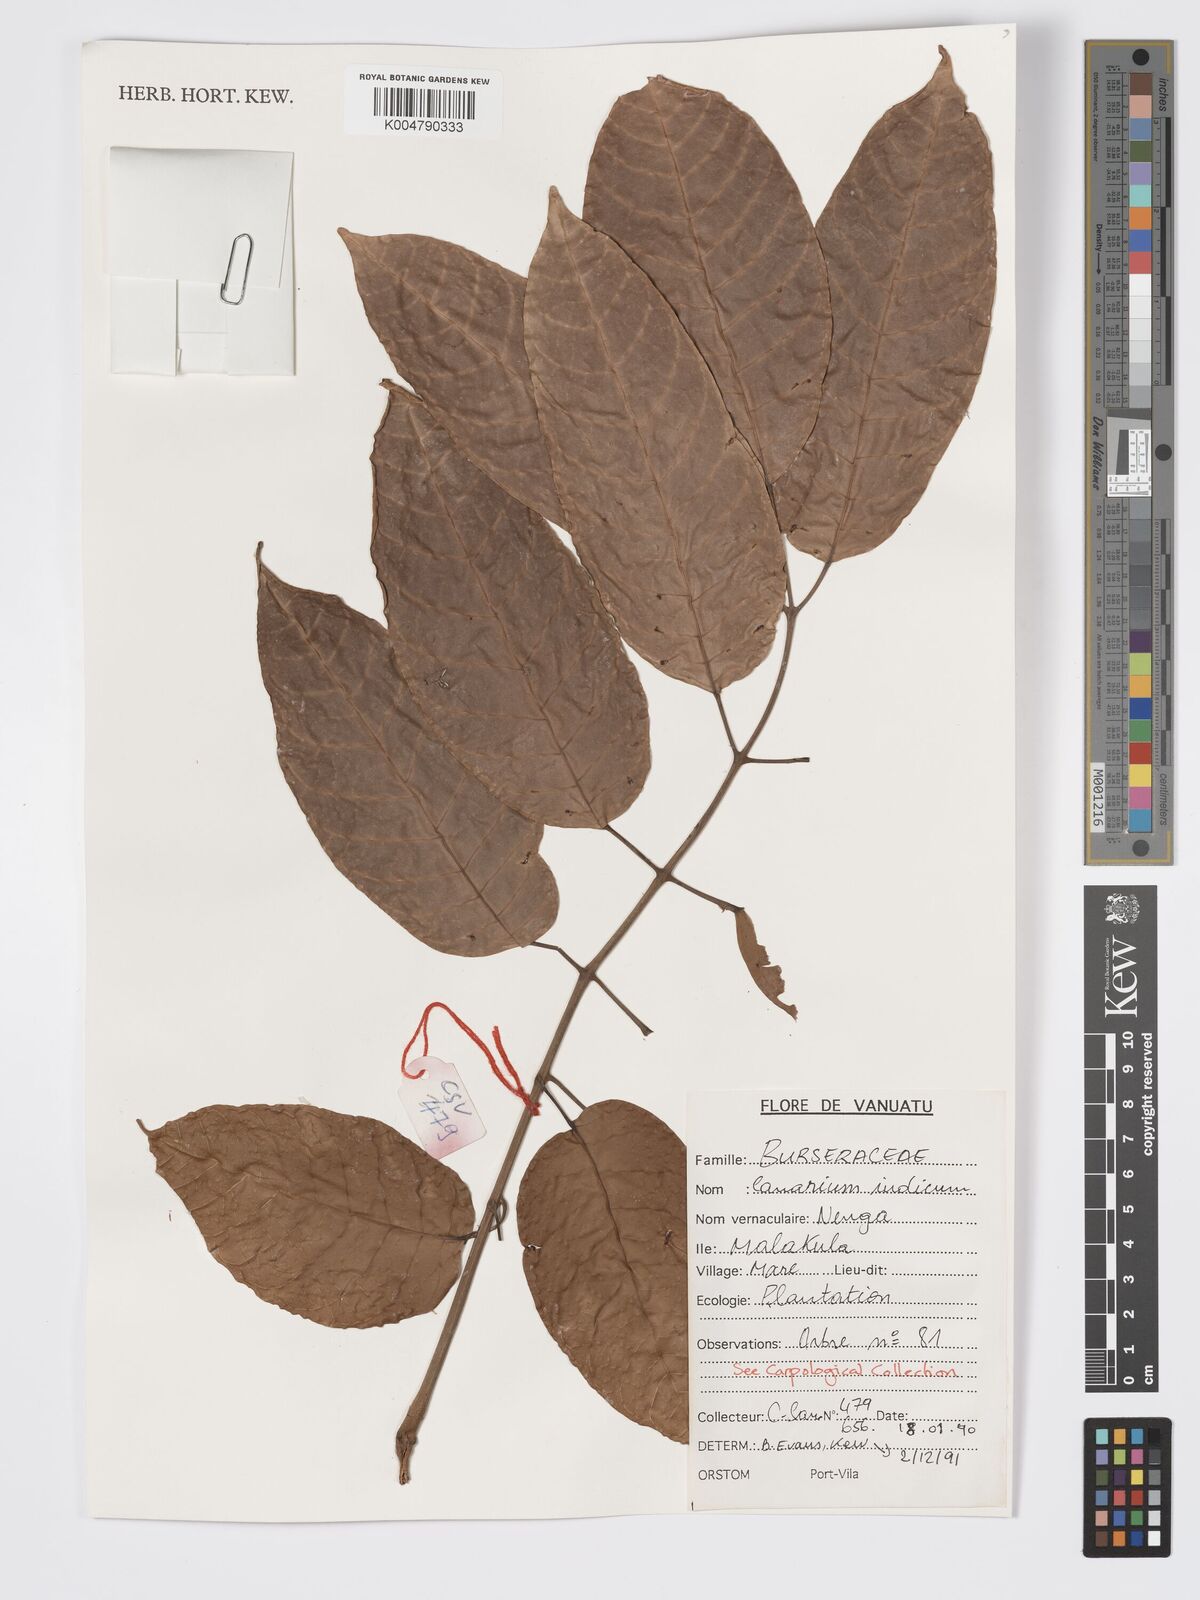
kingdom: Plantae
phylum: Tracheophyta
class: Magnoliopsida
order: Sapindales
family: Burseraceae
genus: Canarium
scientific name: Canarium indicum
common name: Canarium-nut
